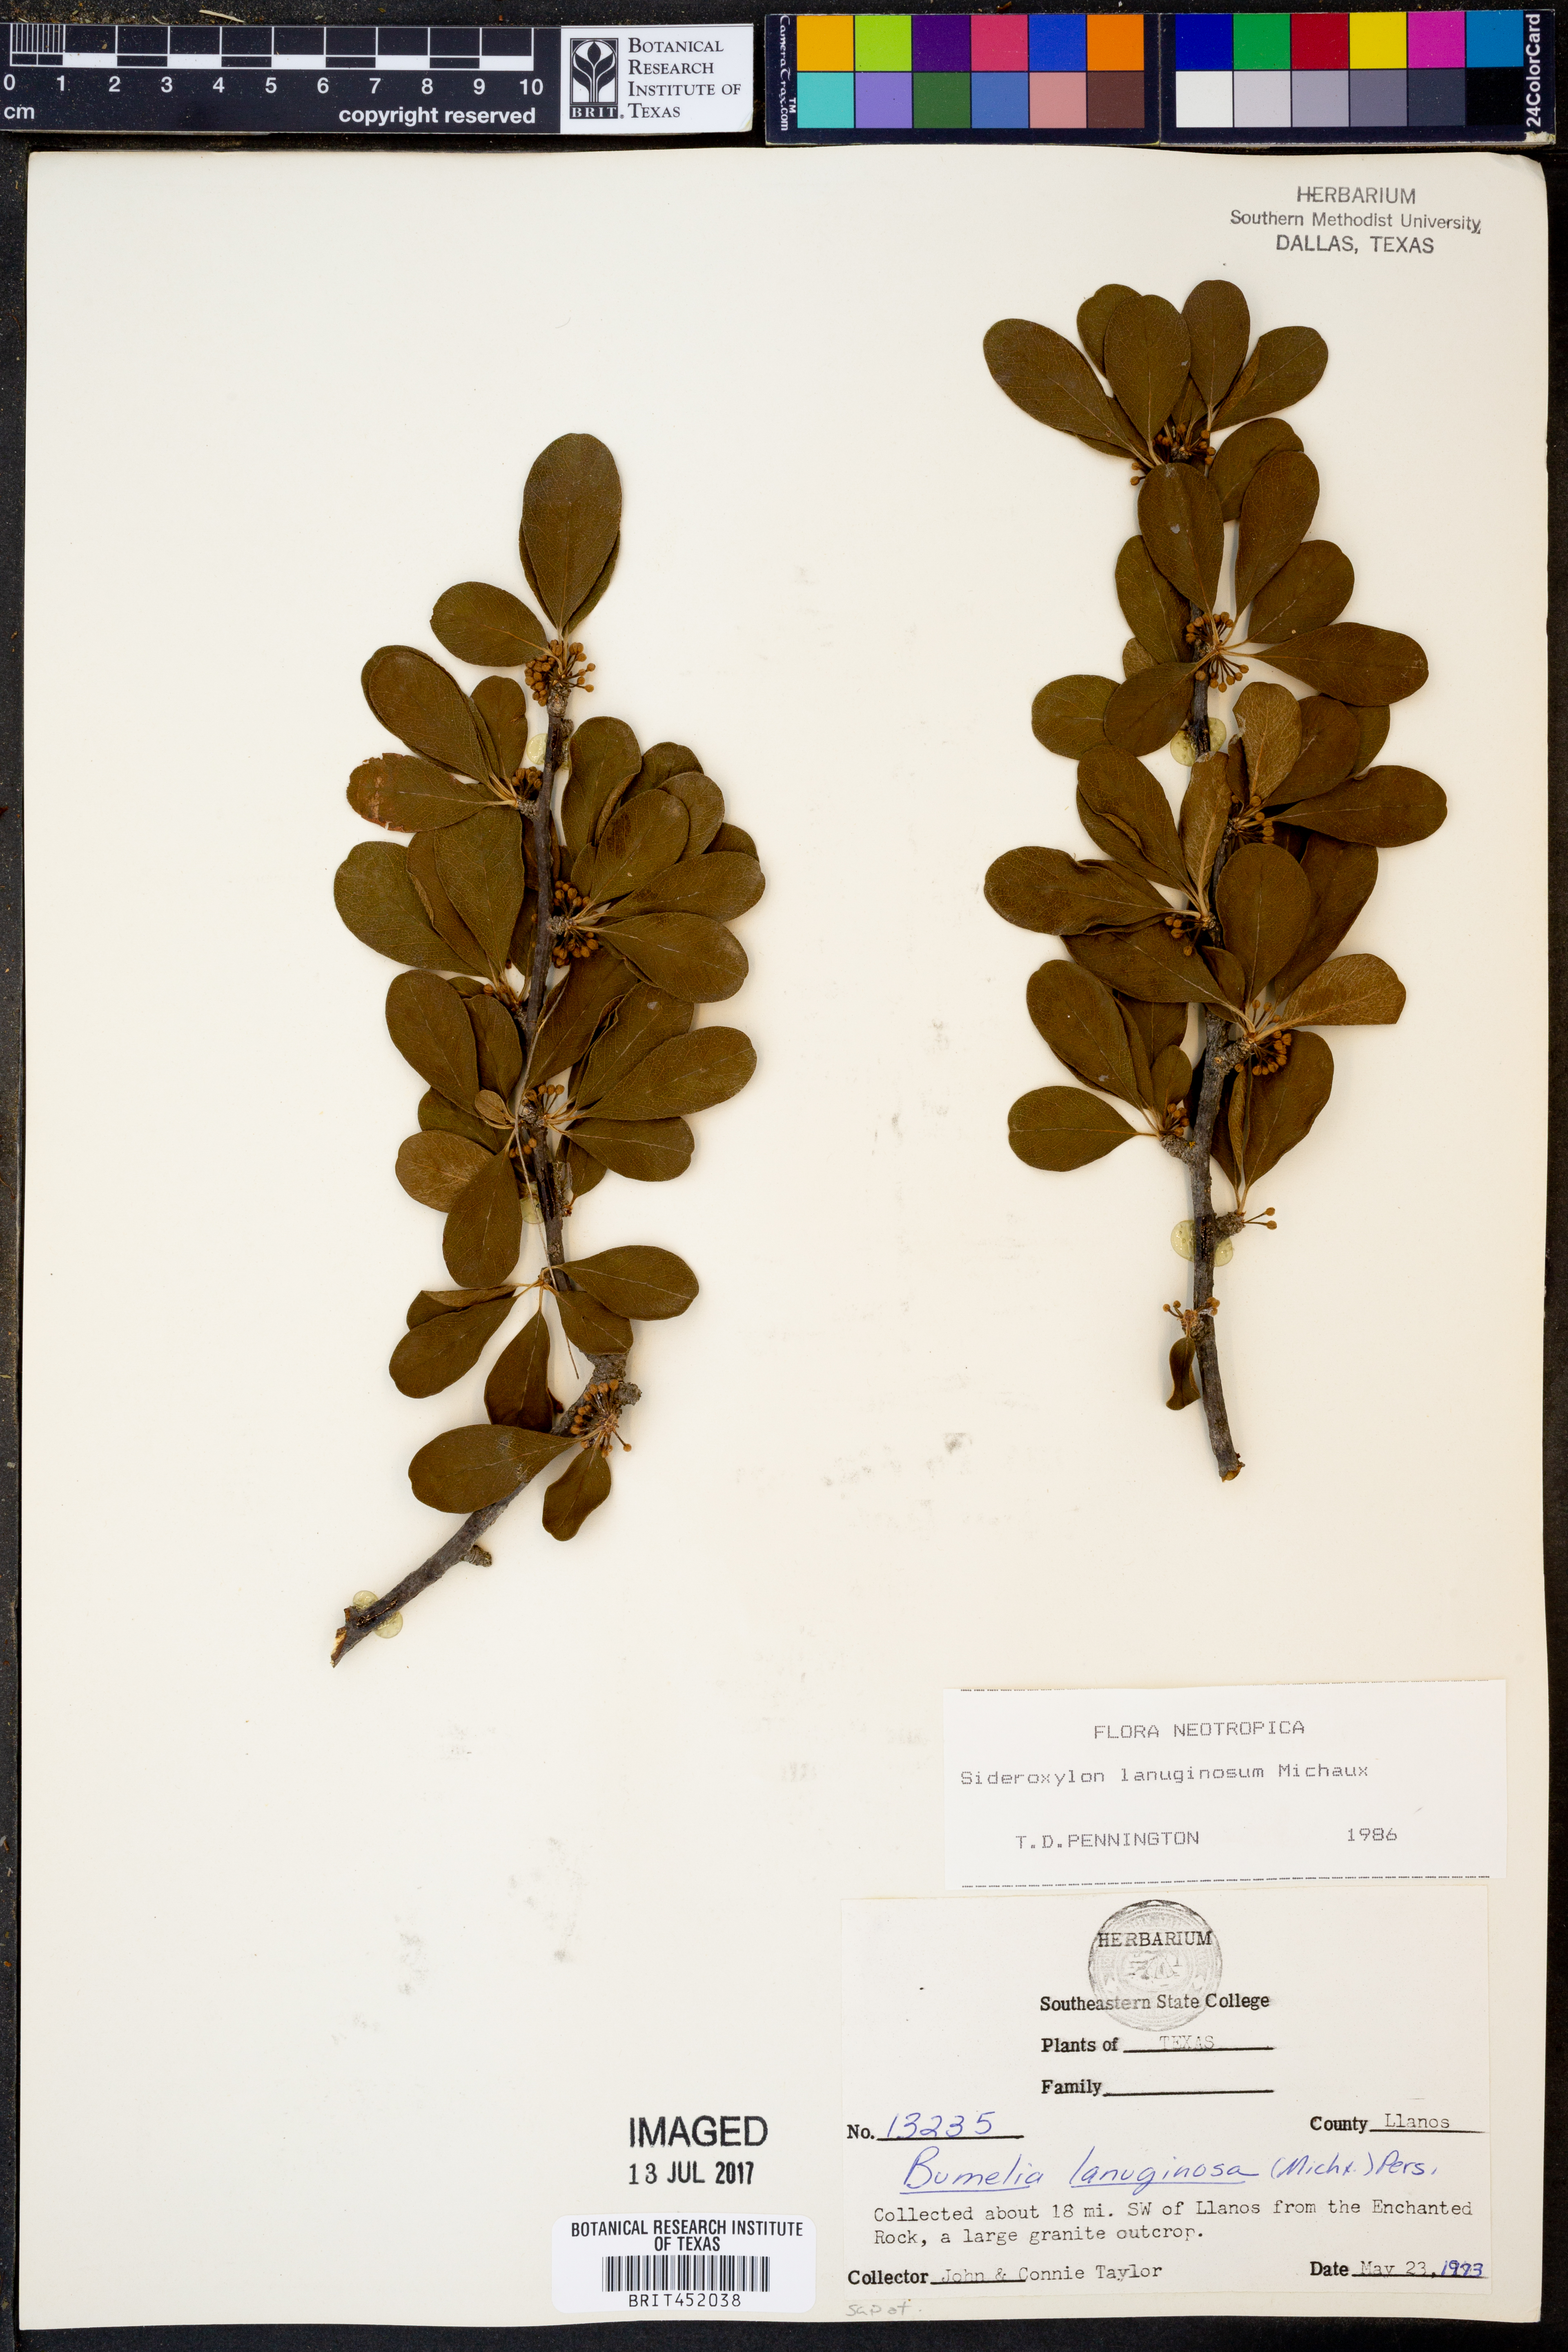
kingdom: Plantae
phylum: Tracheophyta
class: Magnoliopsida
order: Ericales
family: Sapotaceae
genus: Sideroxylon
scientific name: Sideroxylon lanuginosum
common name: Chittamwood
